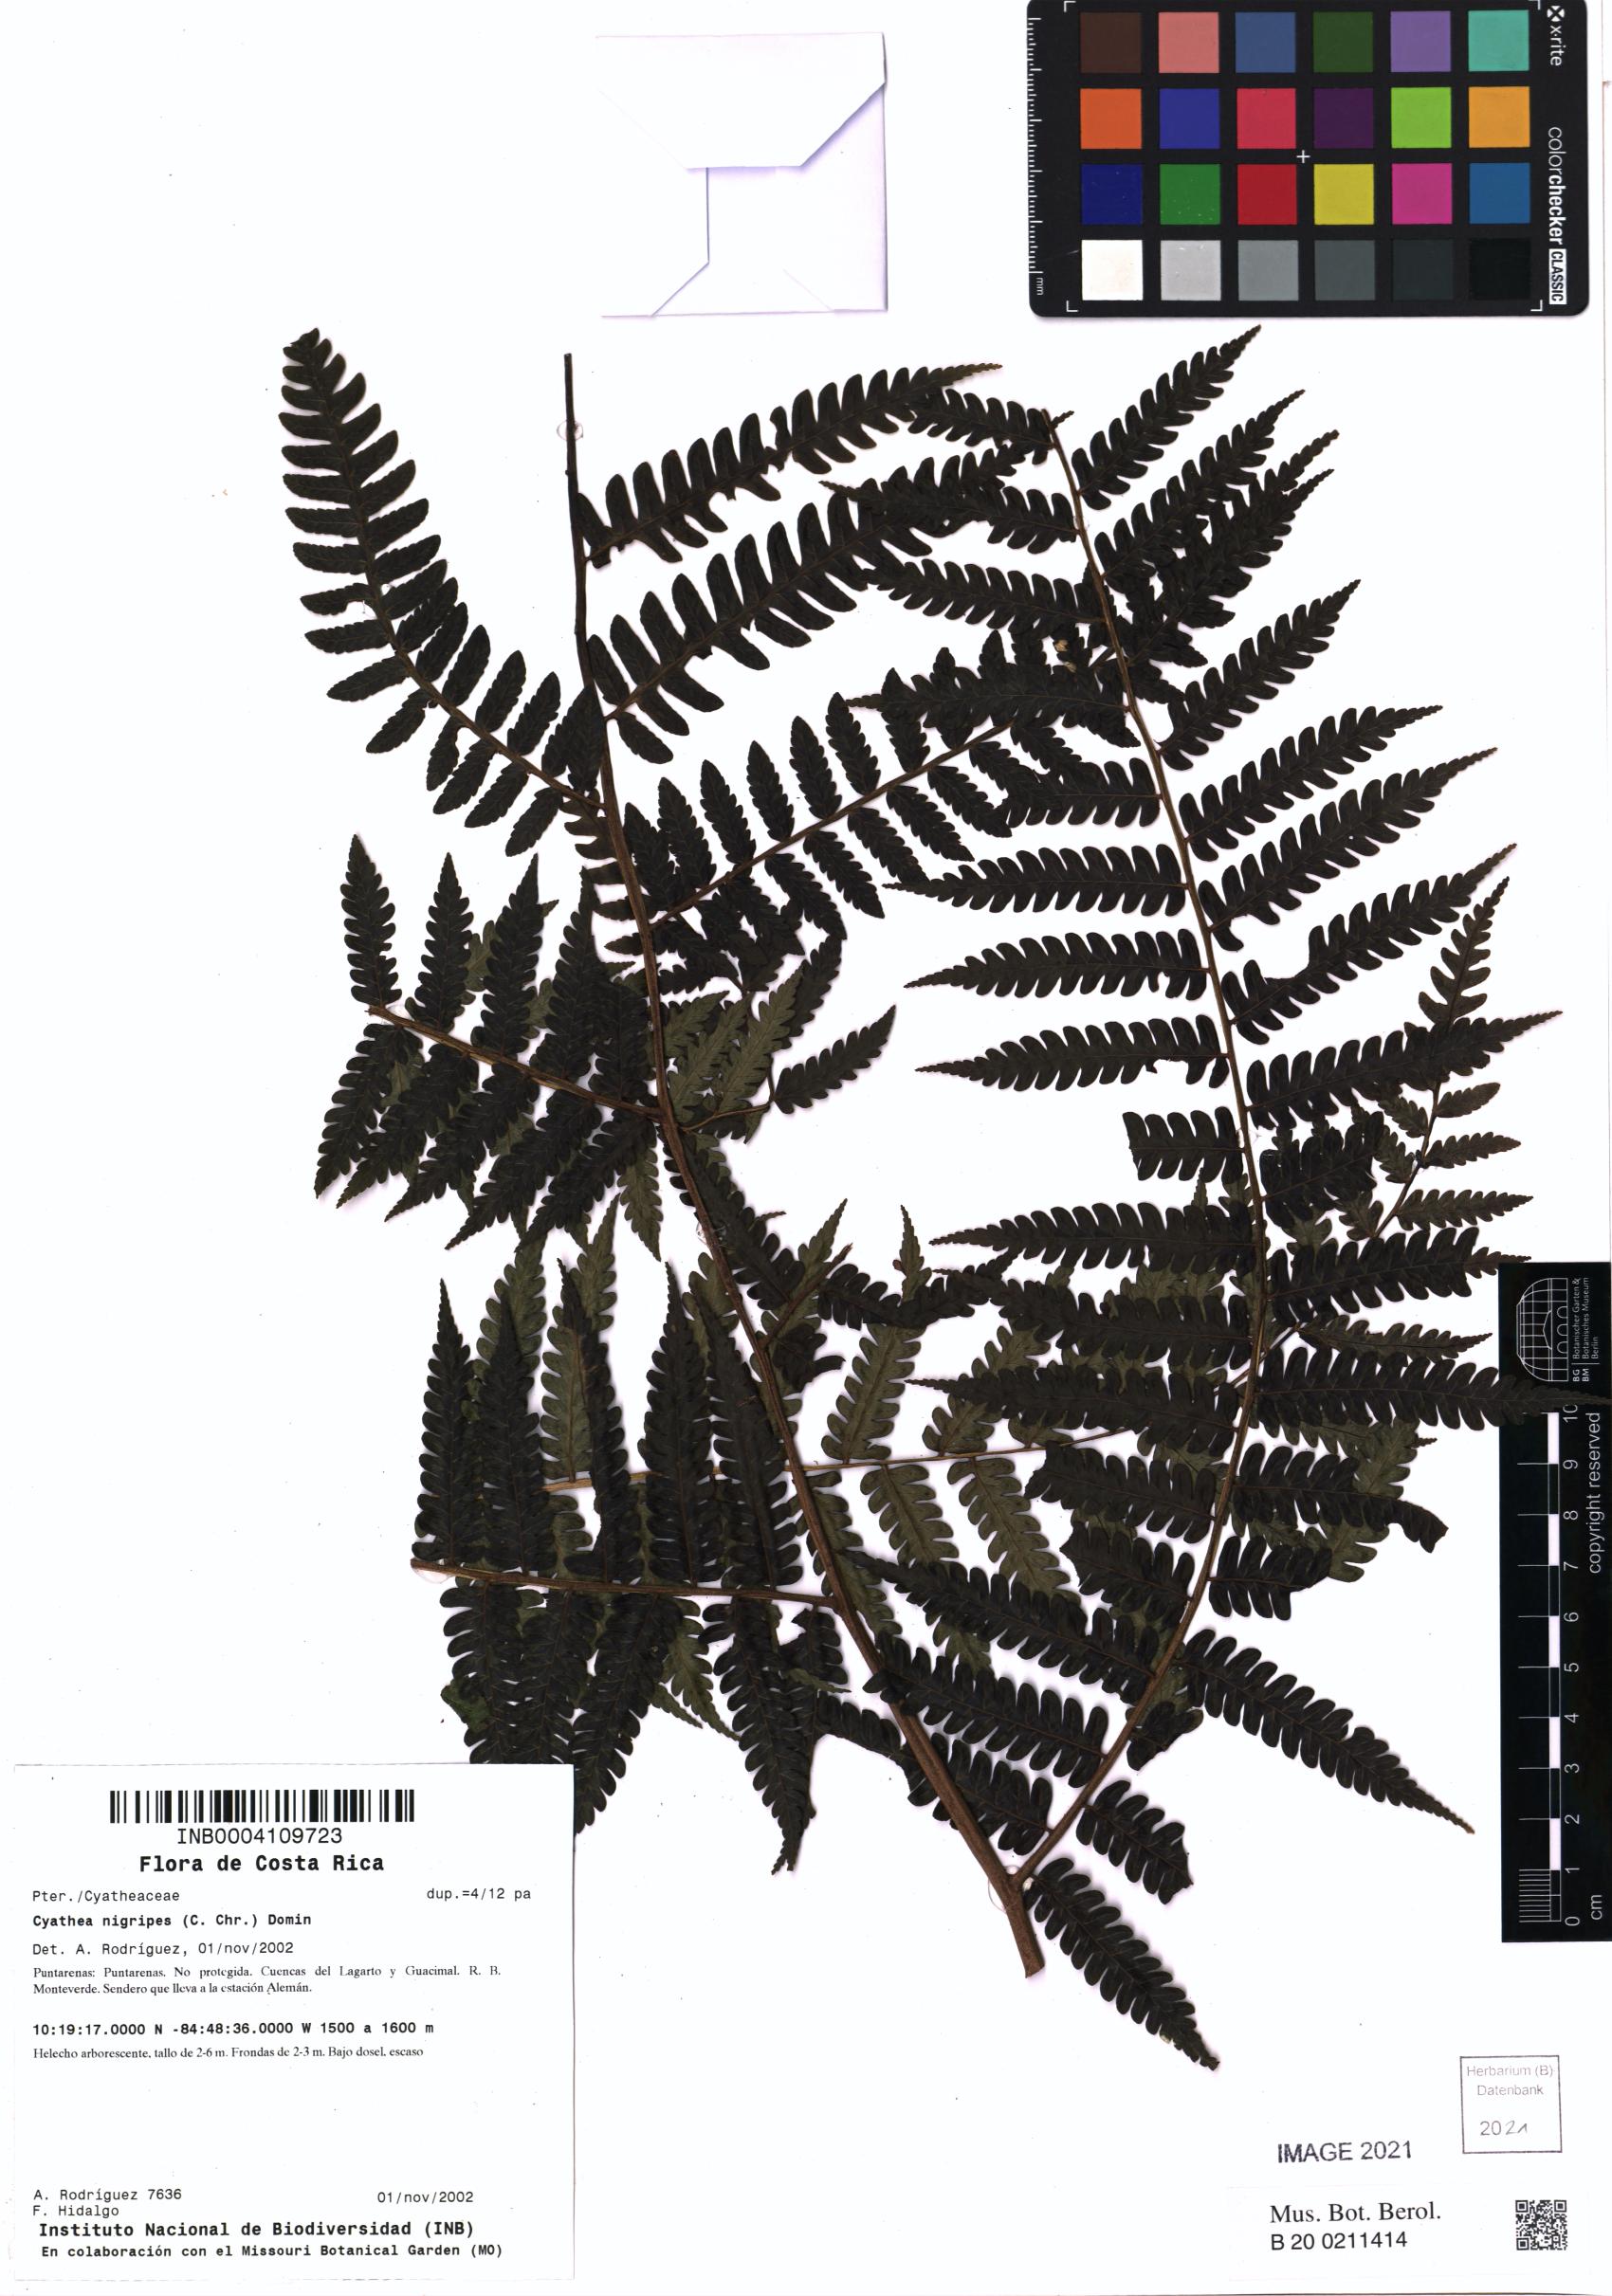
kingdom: Plantae
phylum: Tracheophyta
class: Polypodiopsida
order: Cyatheales
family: Cyatheaceae
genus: Cyathea
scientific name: Cyathea nigripes
